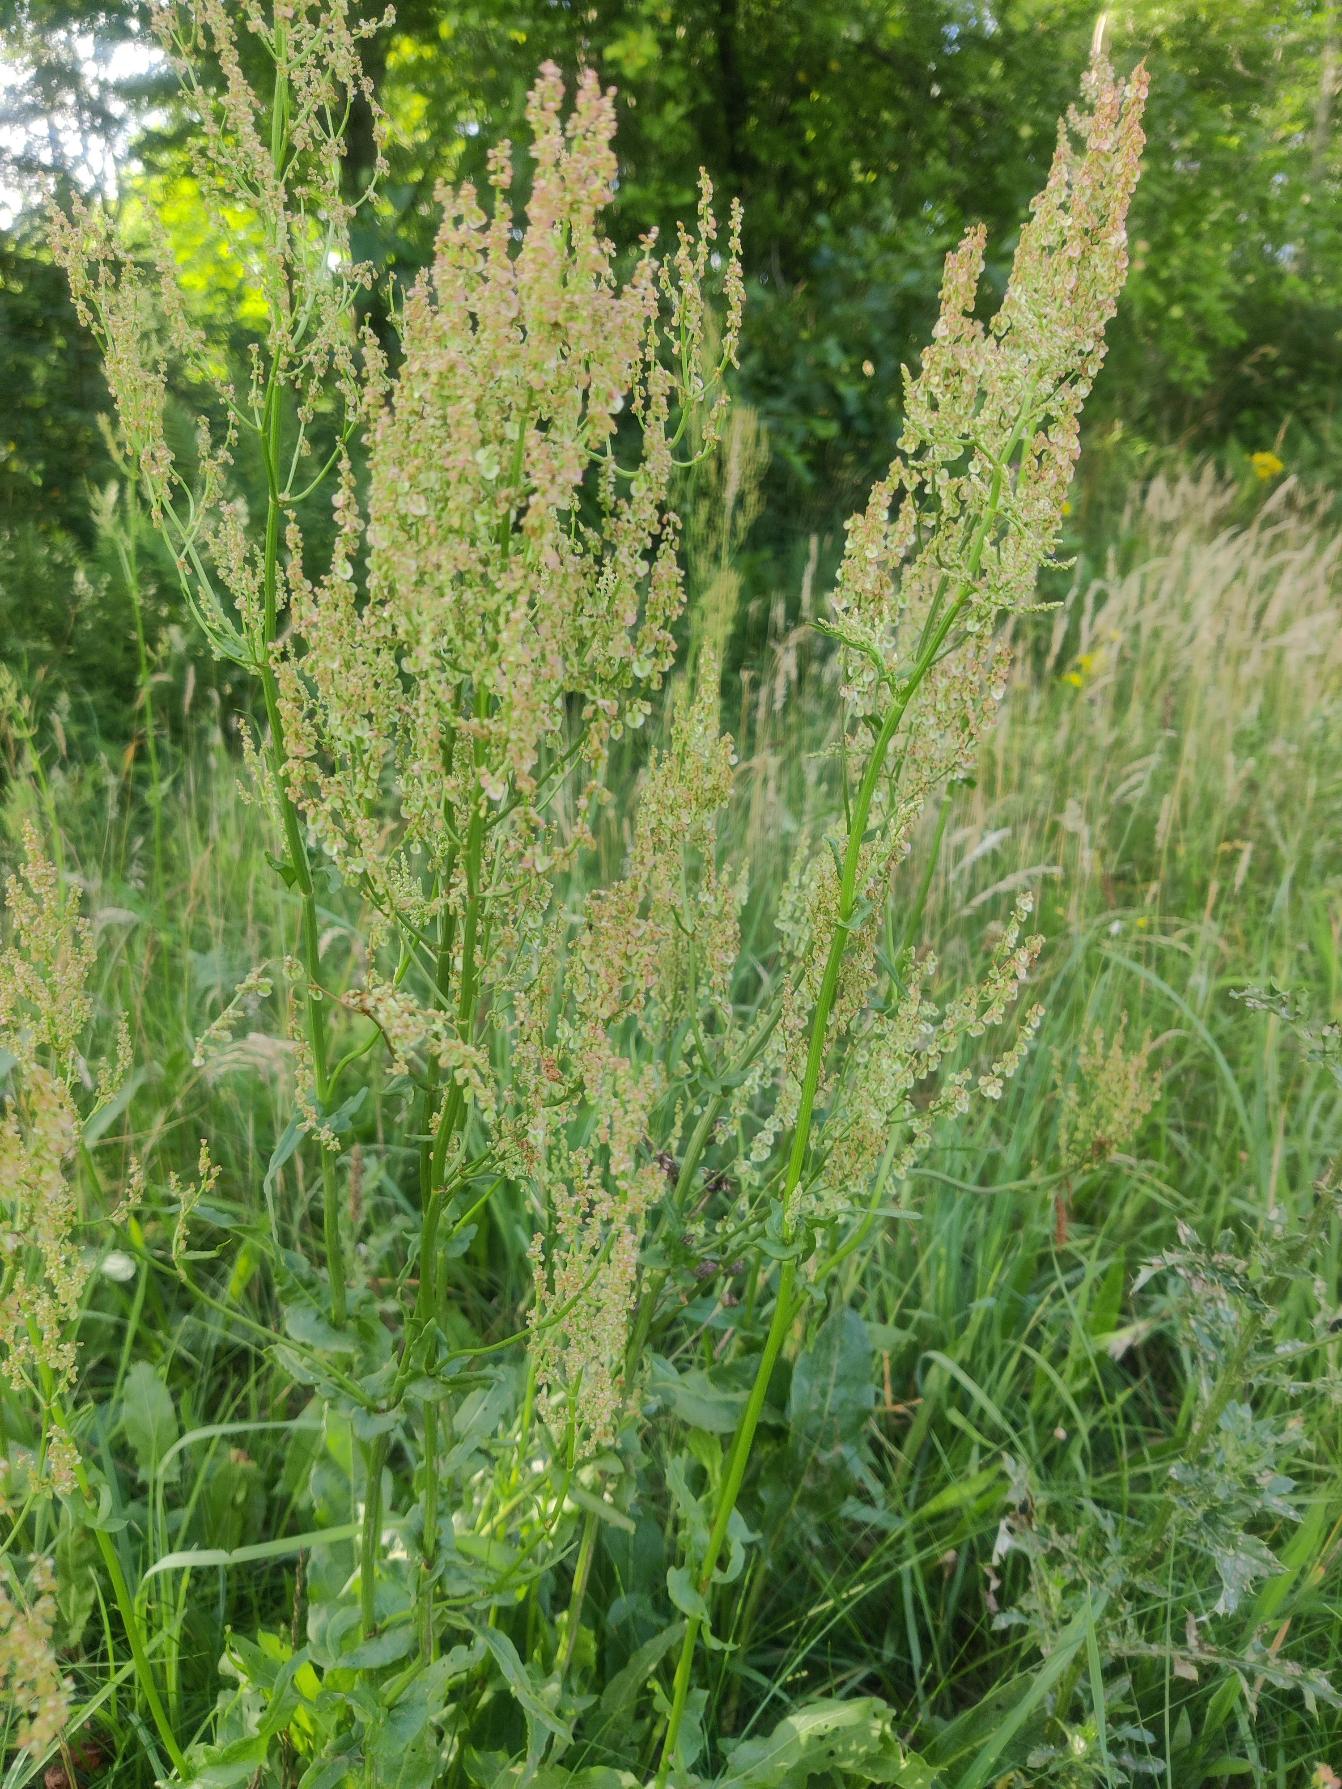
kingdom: Plantae
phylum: Tracheophyta
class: Magnoliopsida
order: Caryophyllales
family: Polygonaceae
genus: Rumex
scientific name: Rumex thyrsiflorus
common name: Dusk-syre
